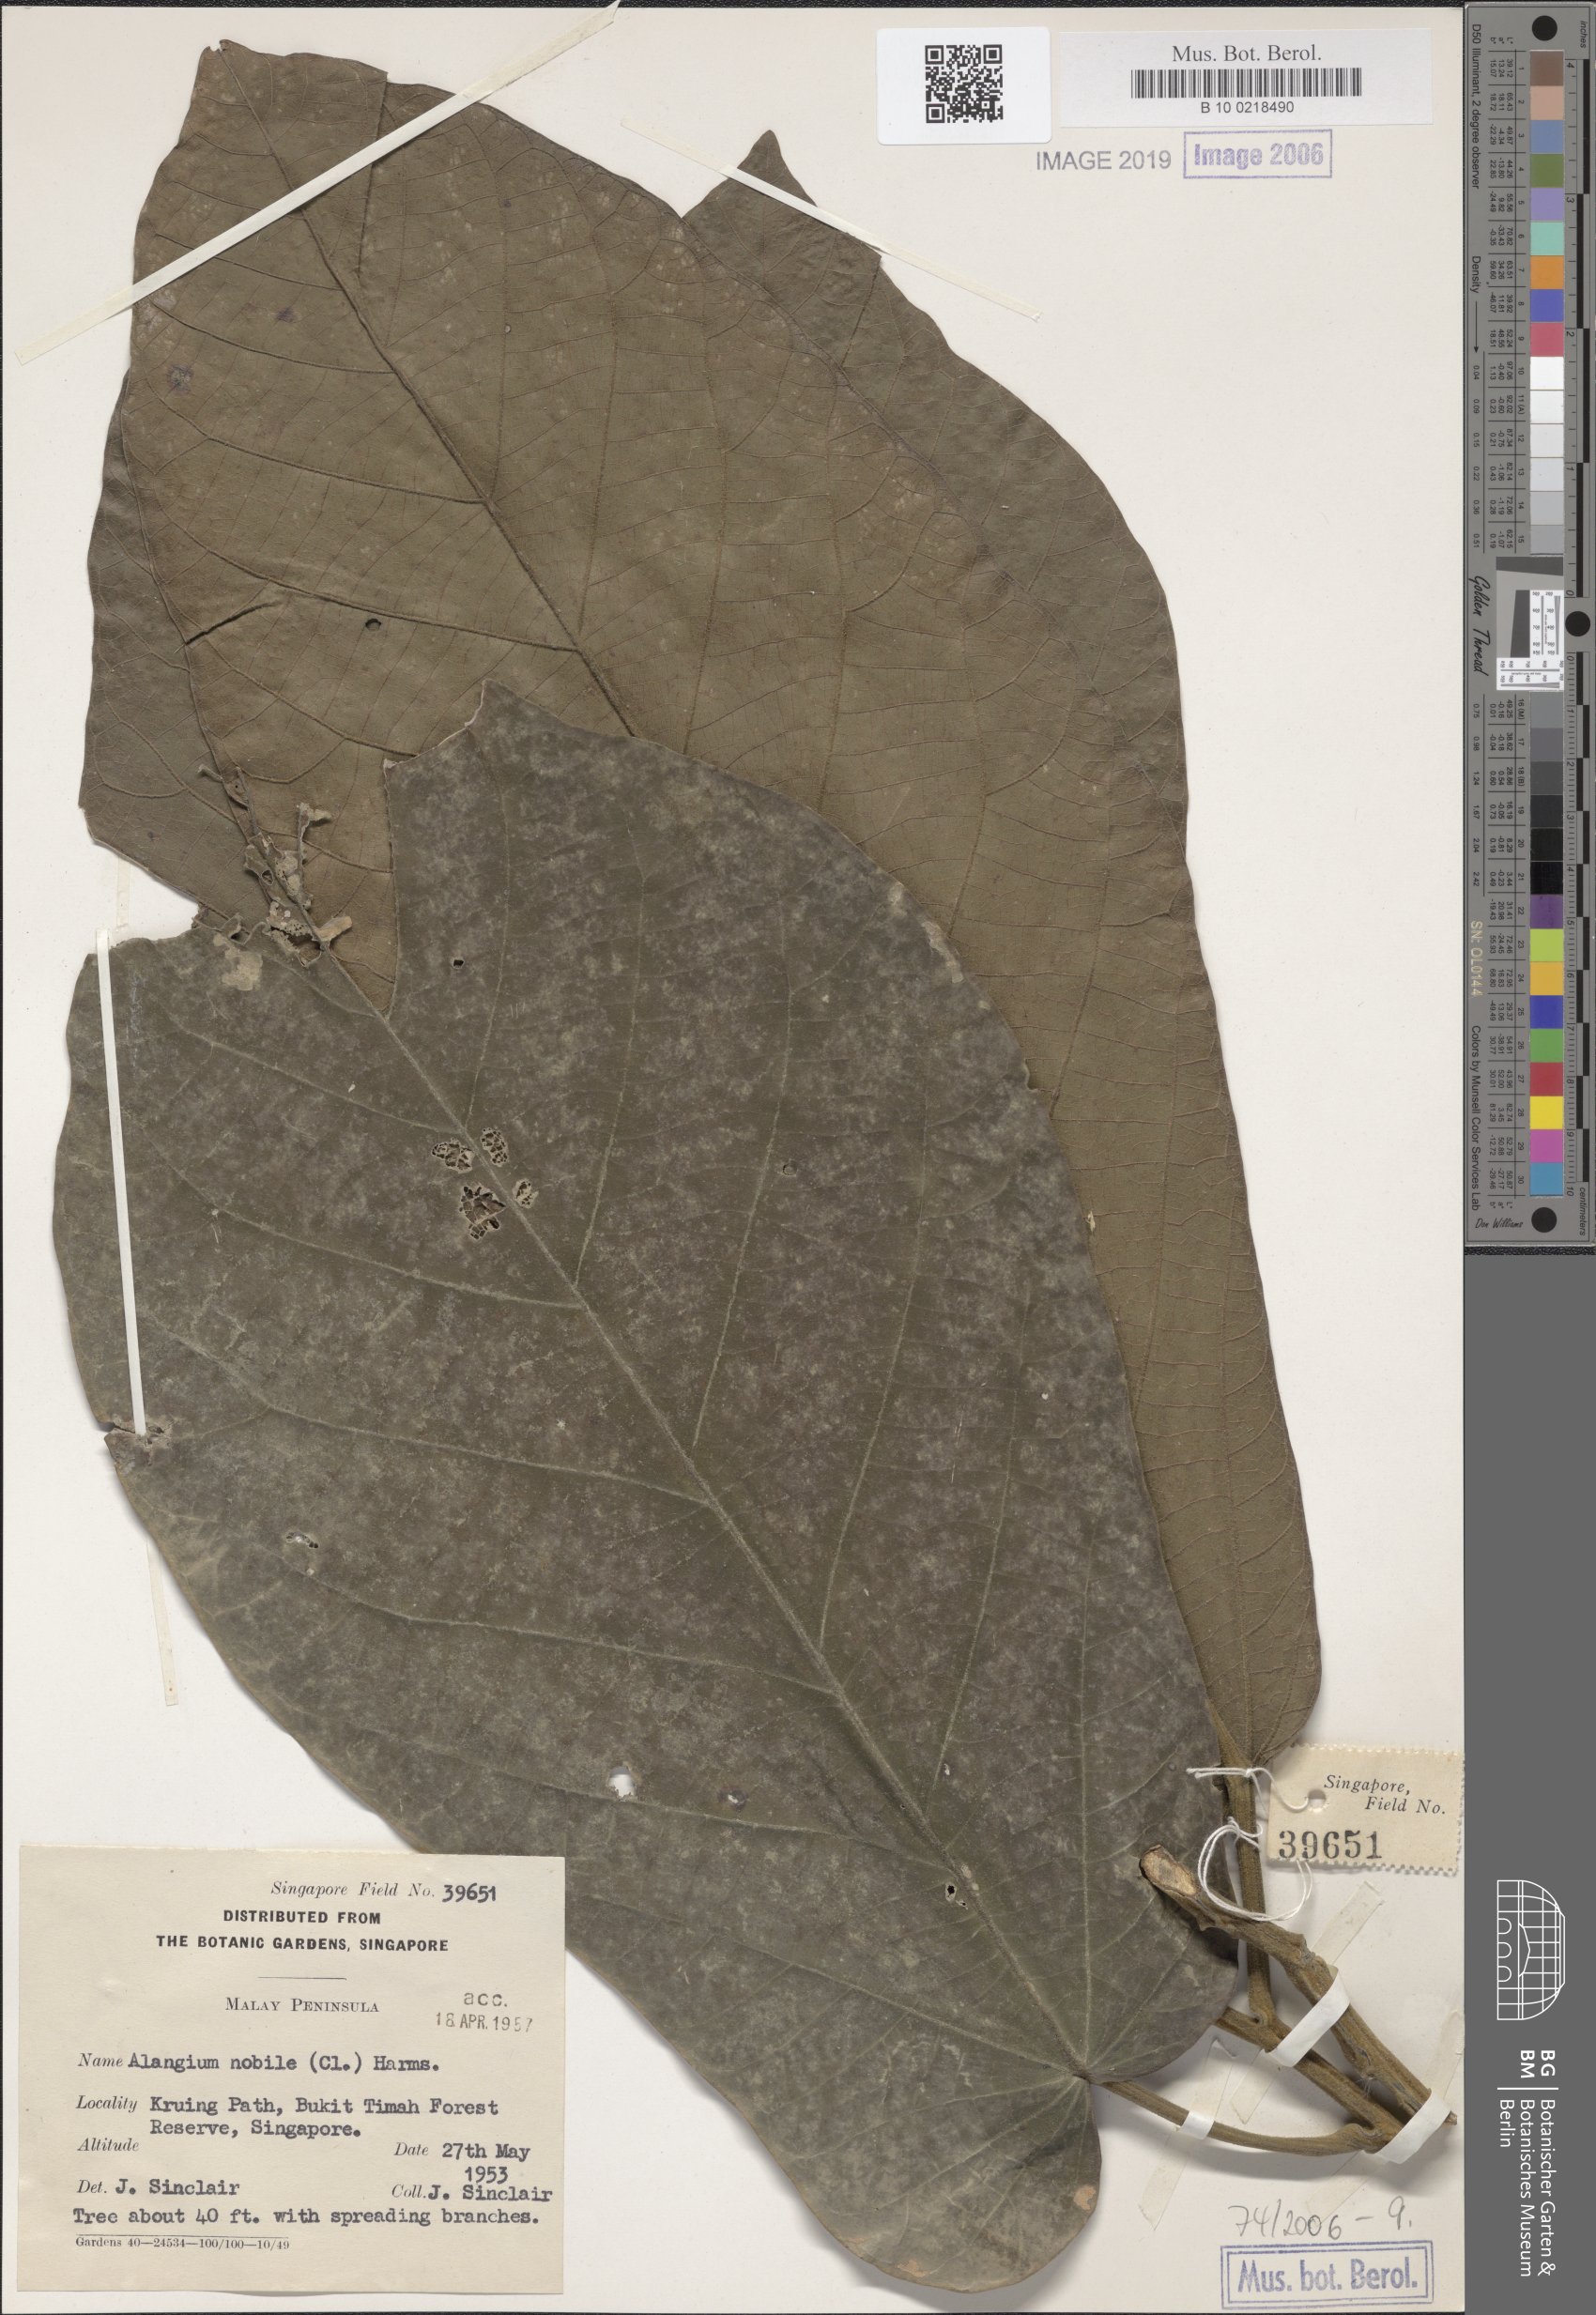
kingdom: Plantae
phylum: Tracheophyta
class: Magnoliopsida
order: Cornales
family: Cornaceae
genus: Alangium
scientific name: Alangium nobile
